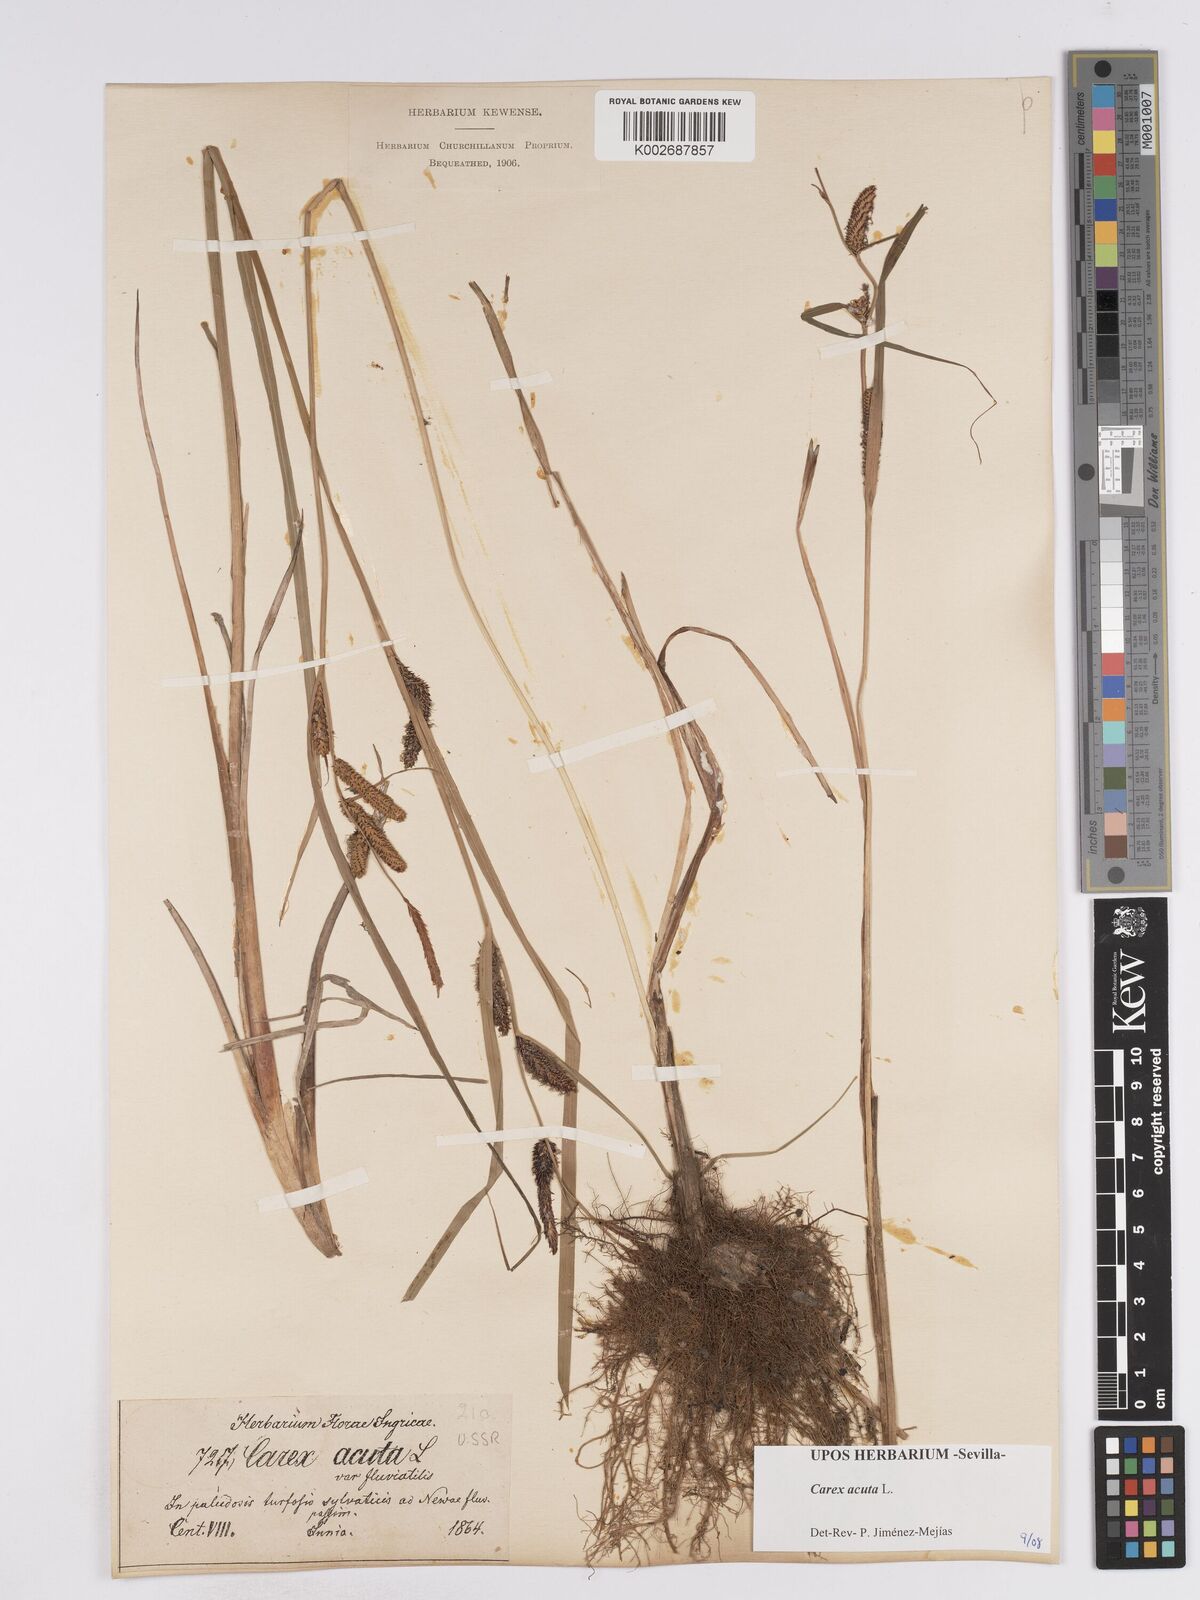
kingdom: Plantae
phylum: Tracheophyta
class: Liliopsida
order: Poales
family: Cyperaceae
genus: Carex
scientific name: Carex acuta
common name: Slender tufted-sedge
